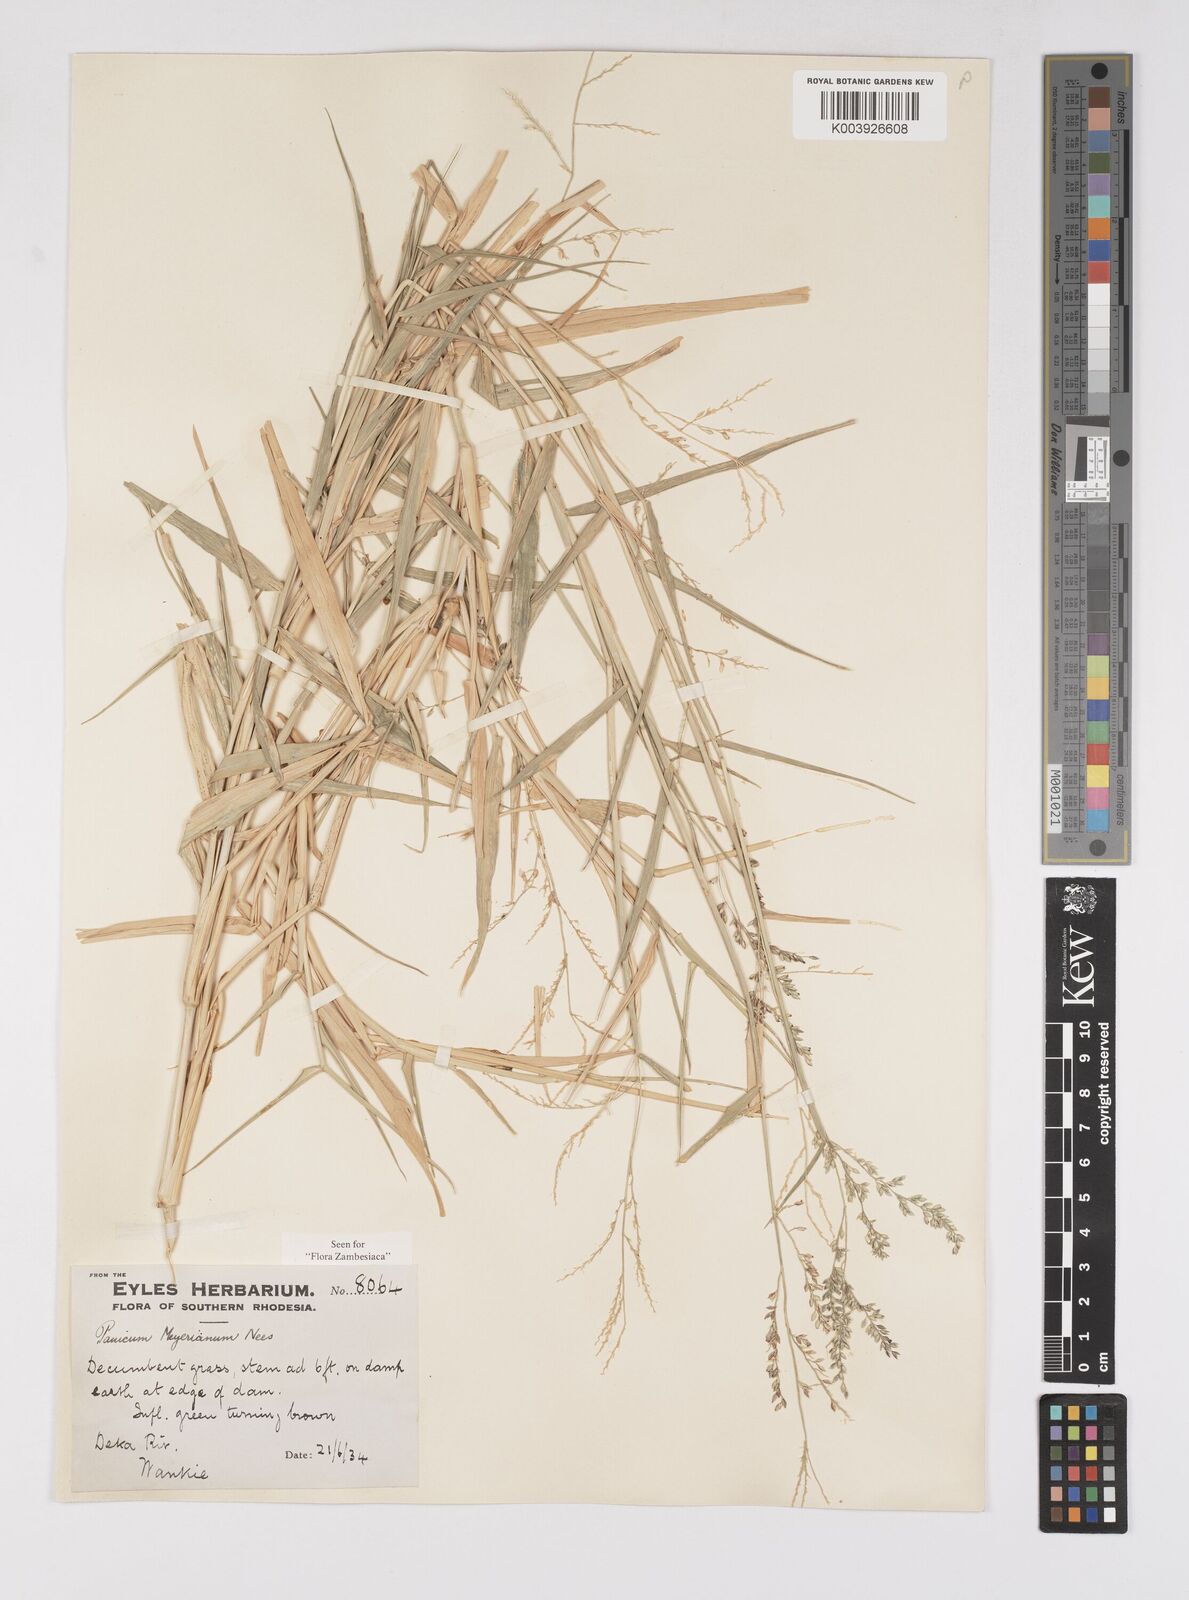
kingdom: Plantae
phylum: Tracheophyta
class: Liliopsida
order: Poales
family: Poaceae
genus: Eriochloa
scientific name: Eriochloa meyeriana
